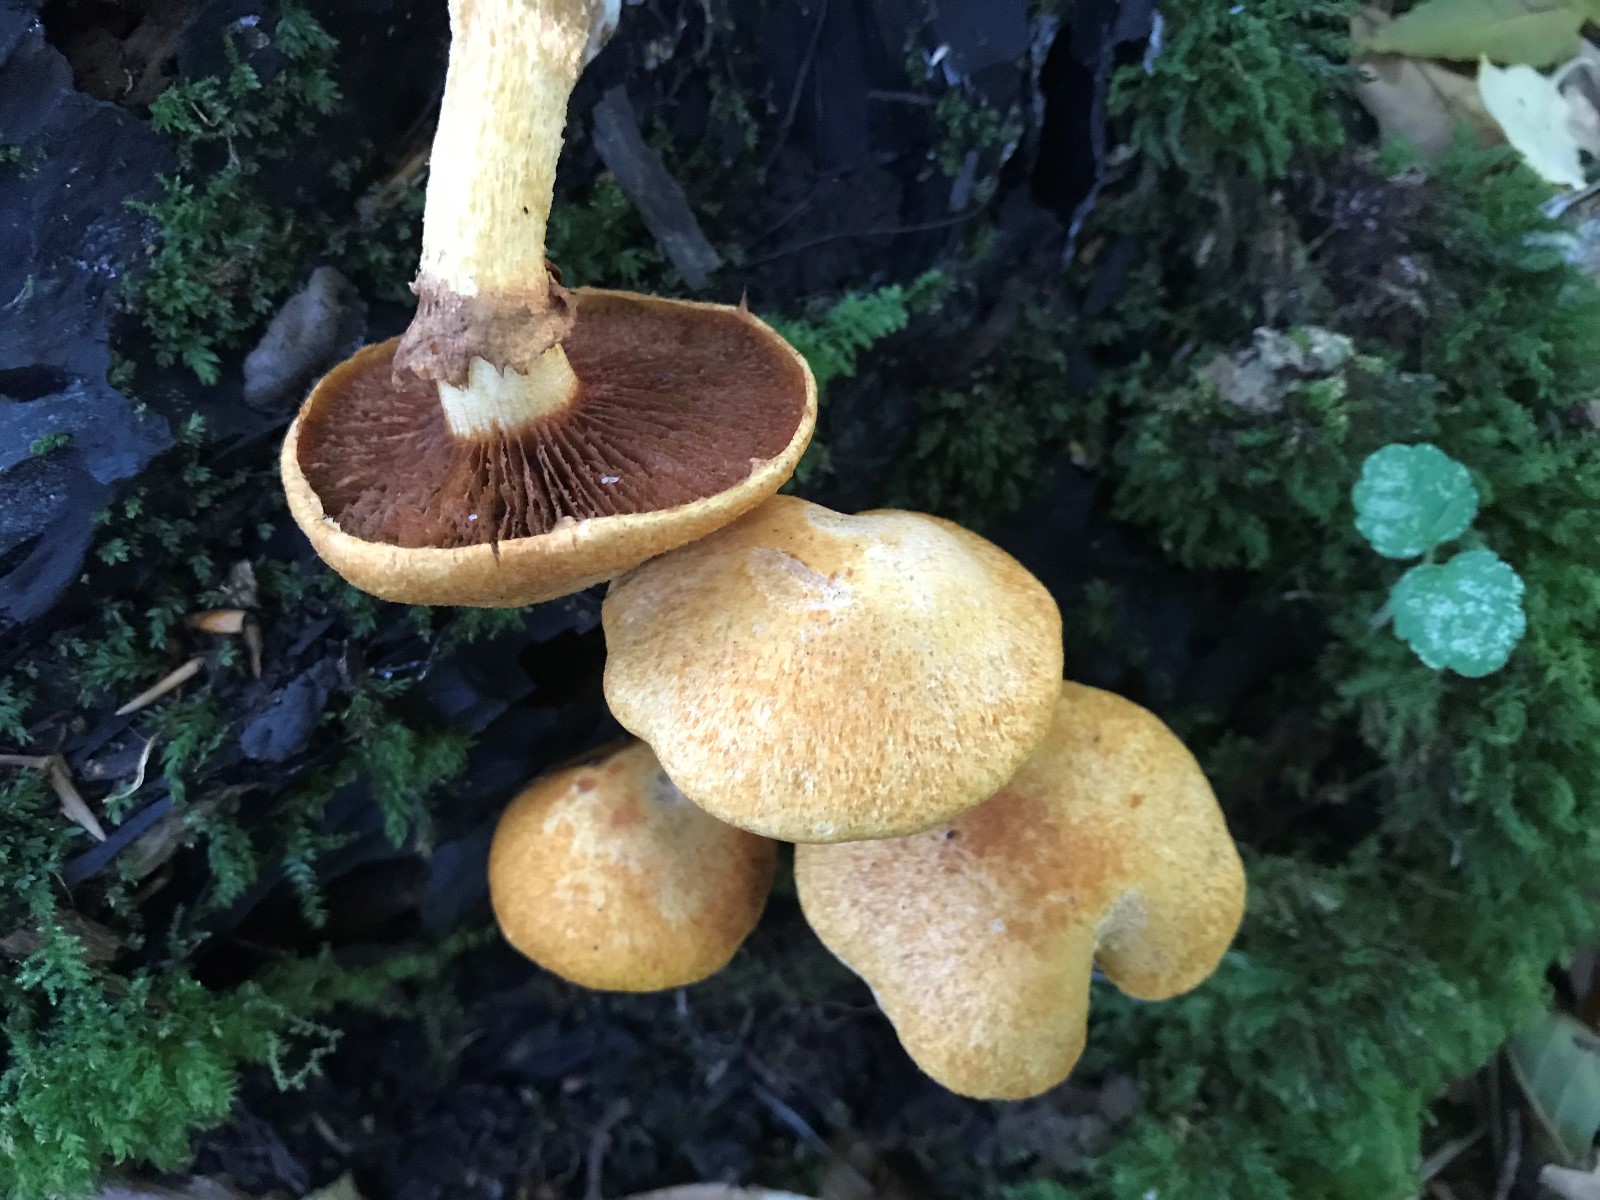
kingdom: Fungi
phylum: Basidiomycota
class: Agaricomycetes
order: Agaricales
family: Hymenogastraceae
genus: Gymnopilus
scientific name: Gymnopilus spectabilis
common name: fibret flammehat
